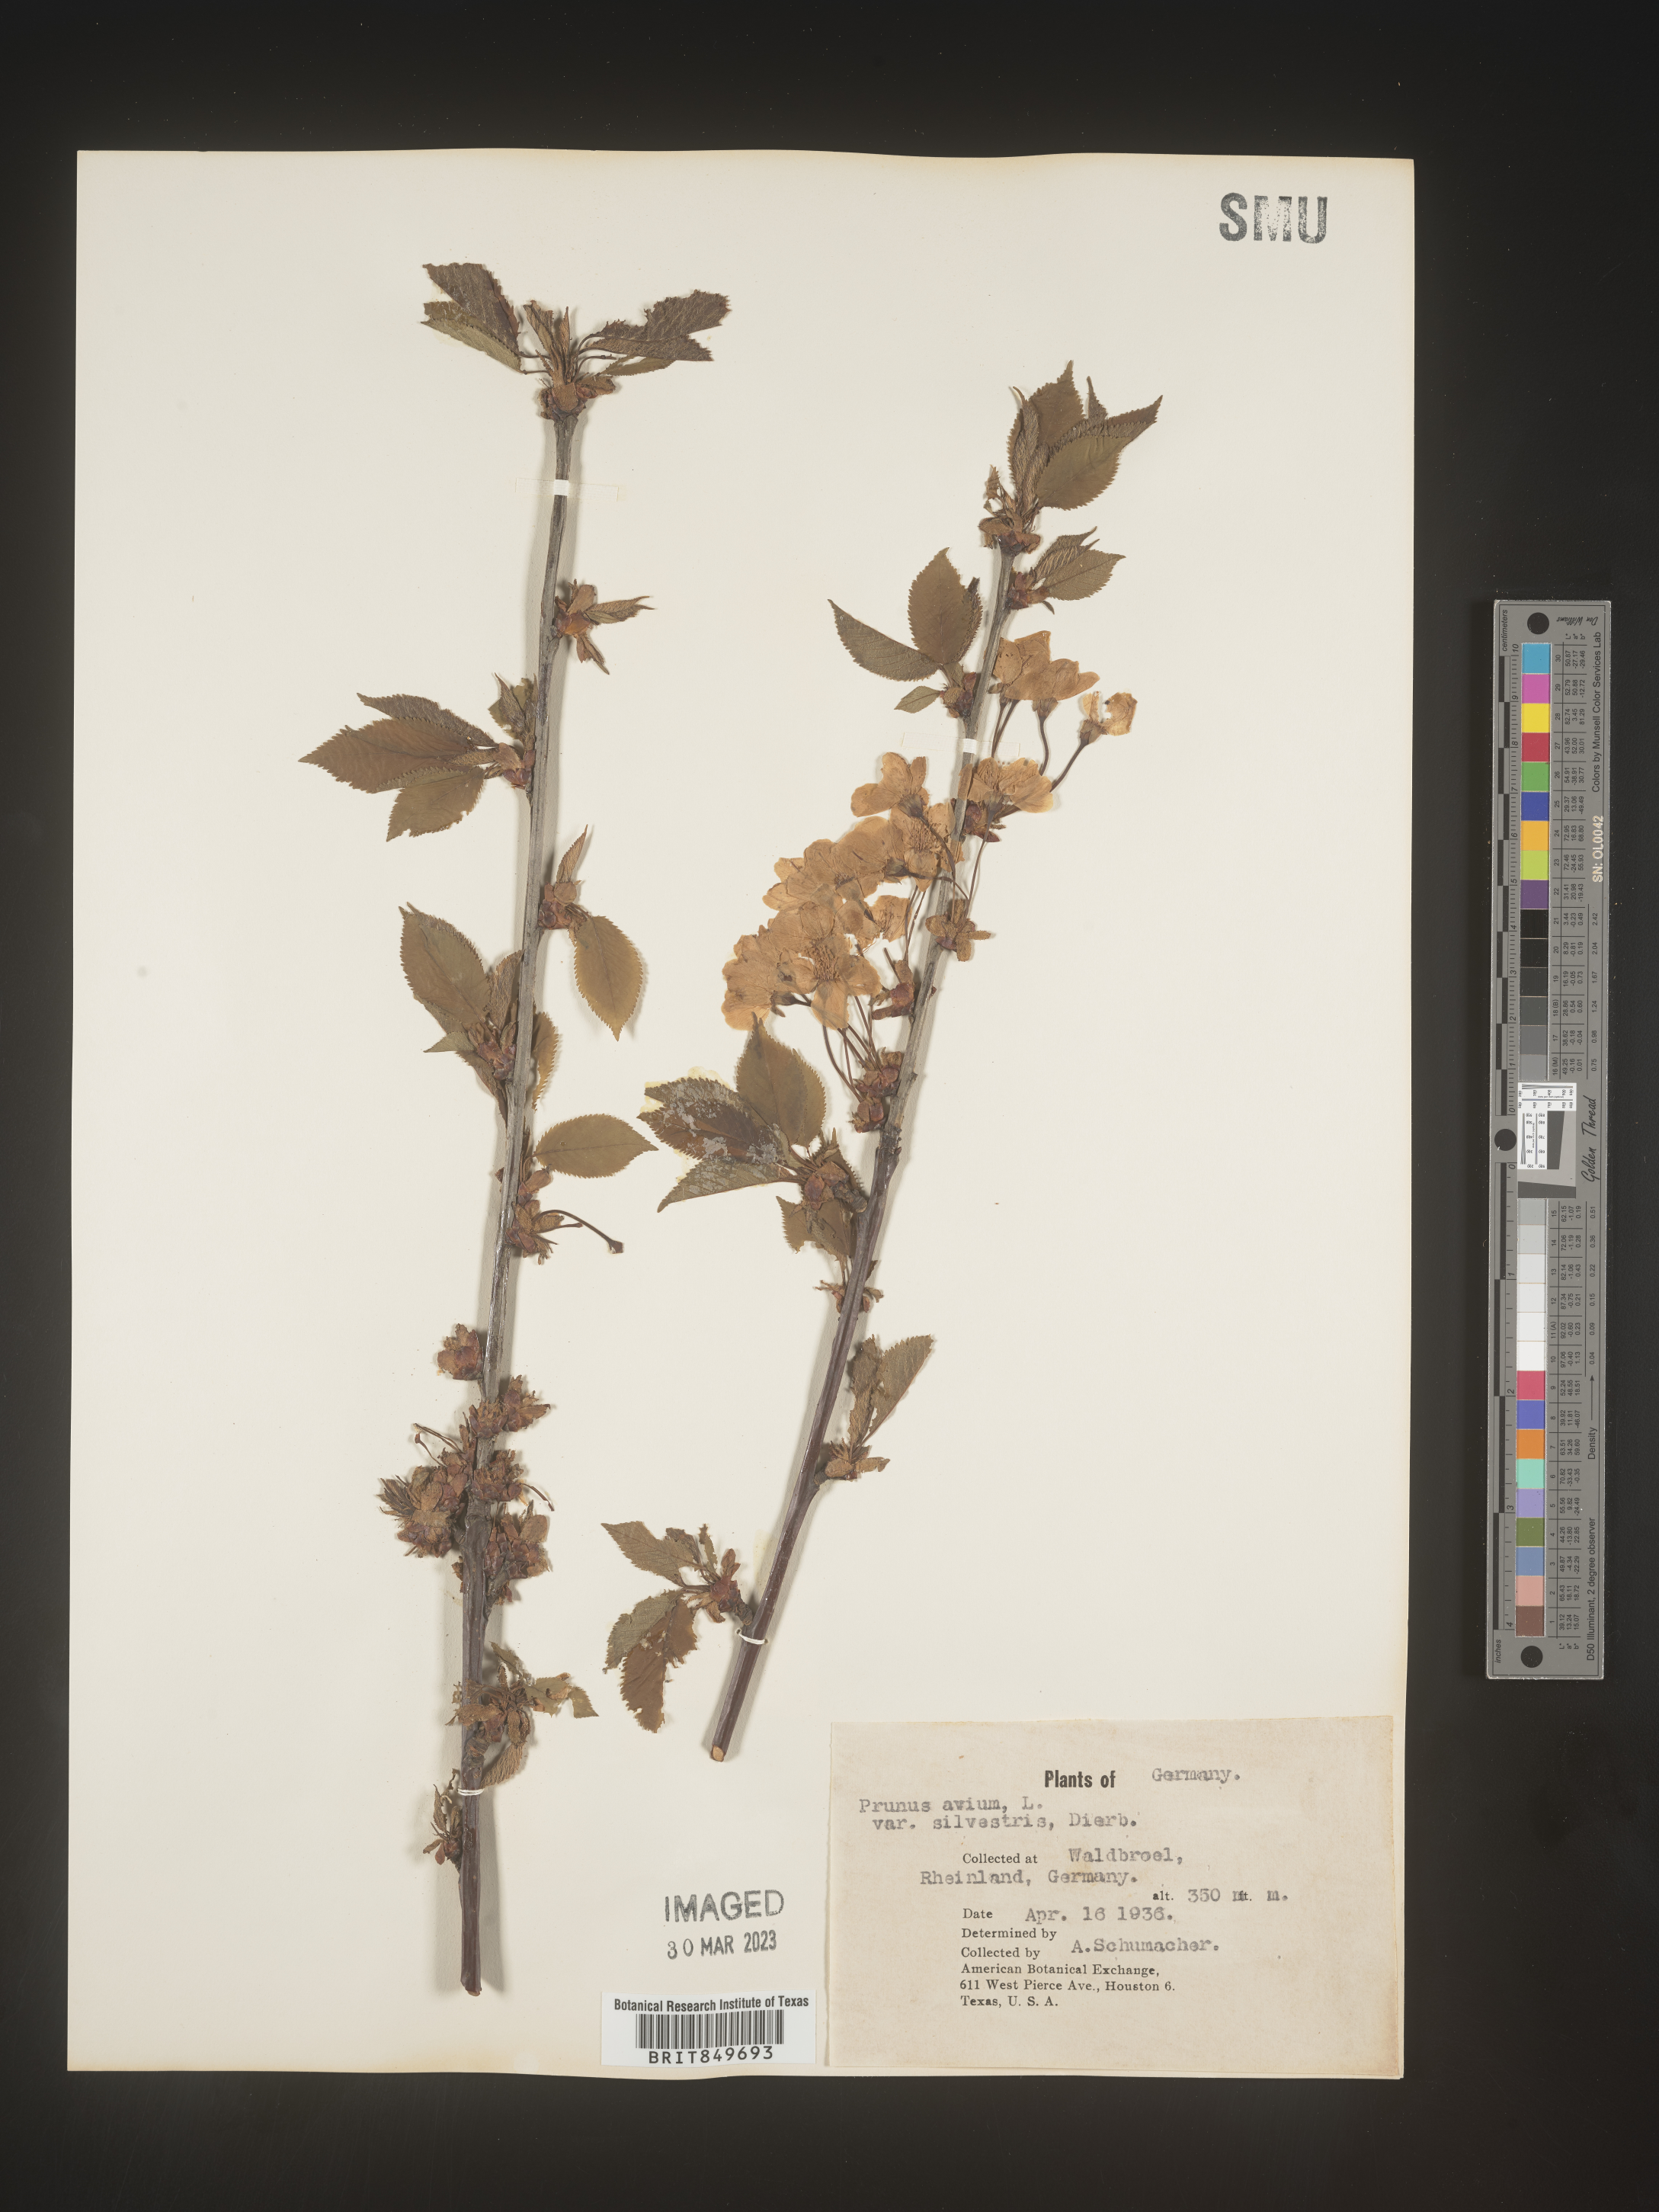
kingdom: Plantae
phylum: Tracheophyta
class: Magnoliopsida
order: Rosales
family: Rosaceae
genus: Prunus
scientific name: Prunus
